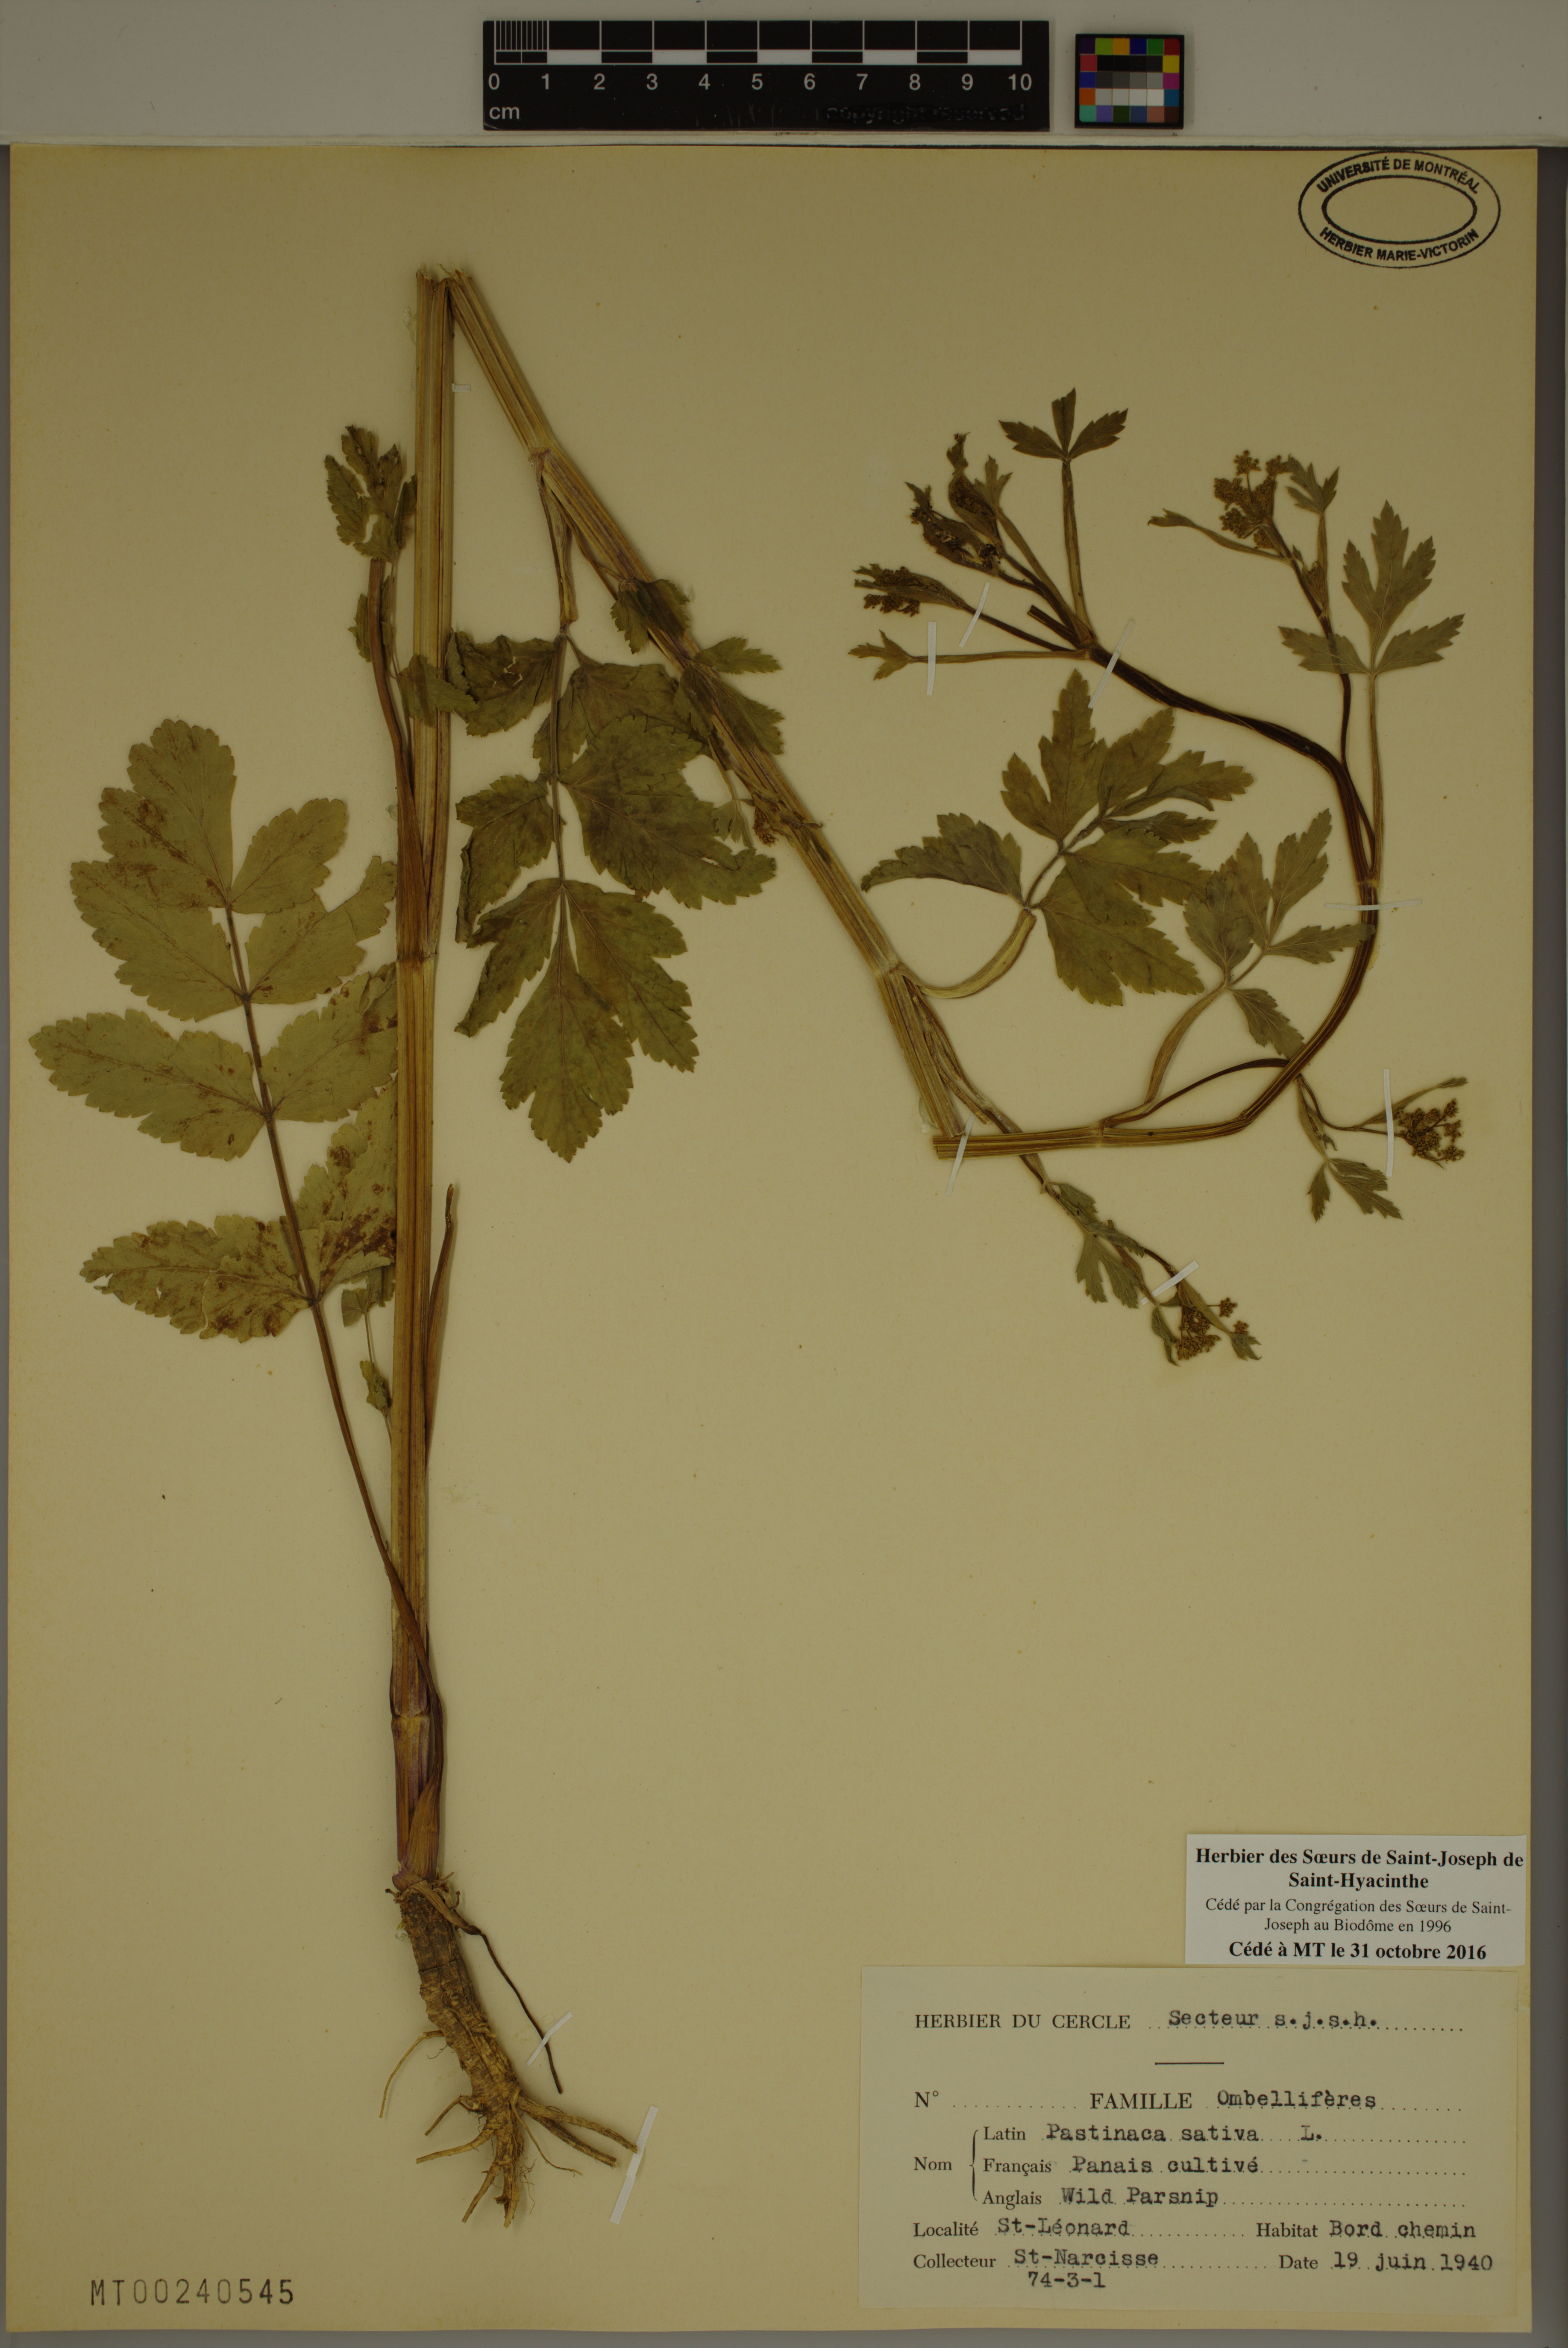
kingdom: Plantae
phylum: Tracheophyta
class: Magnoliopsida
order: Apiales
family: Apiaceae
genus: Pastinaca
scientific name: Pastinaca sativa
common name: Wild parsnip
